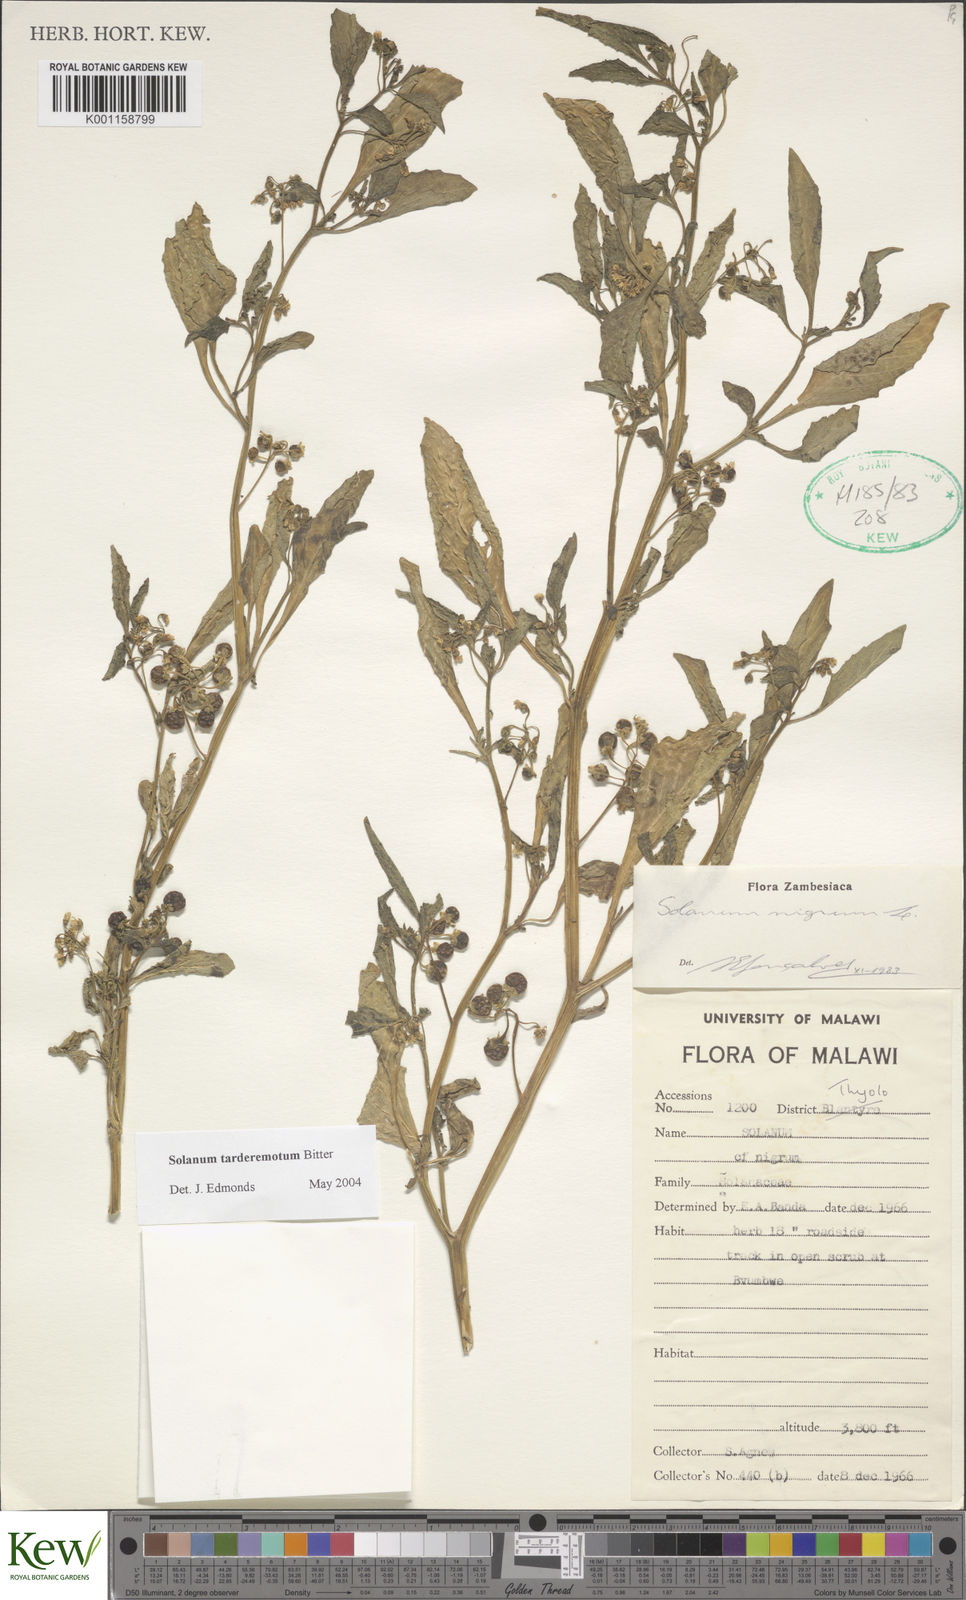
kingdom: Plantae
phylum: Tracheophyta
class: Magnoliopsida
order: Solanales
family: Solanaceae
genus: Solanum
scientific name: Solanum tarderemotum
